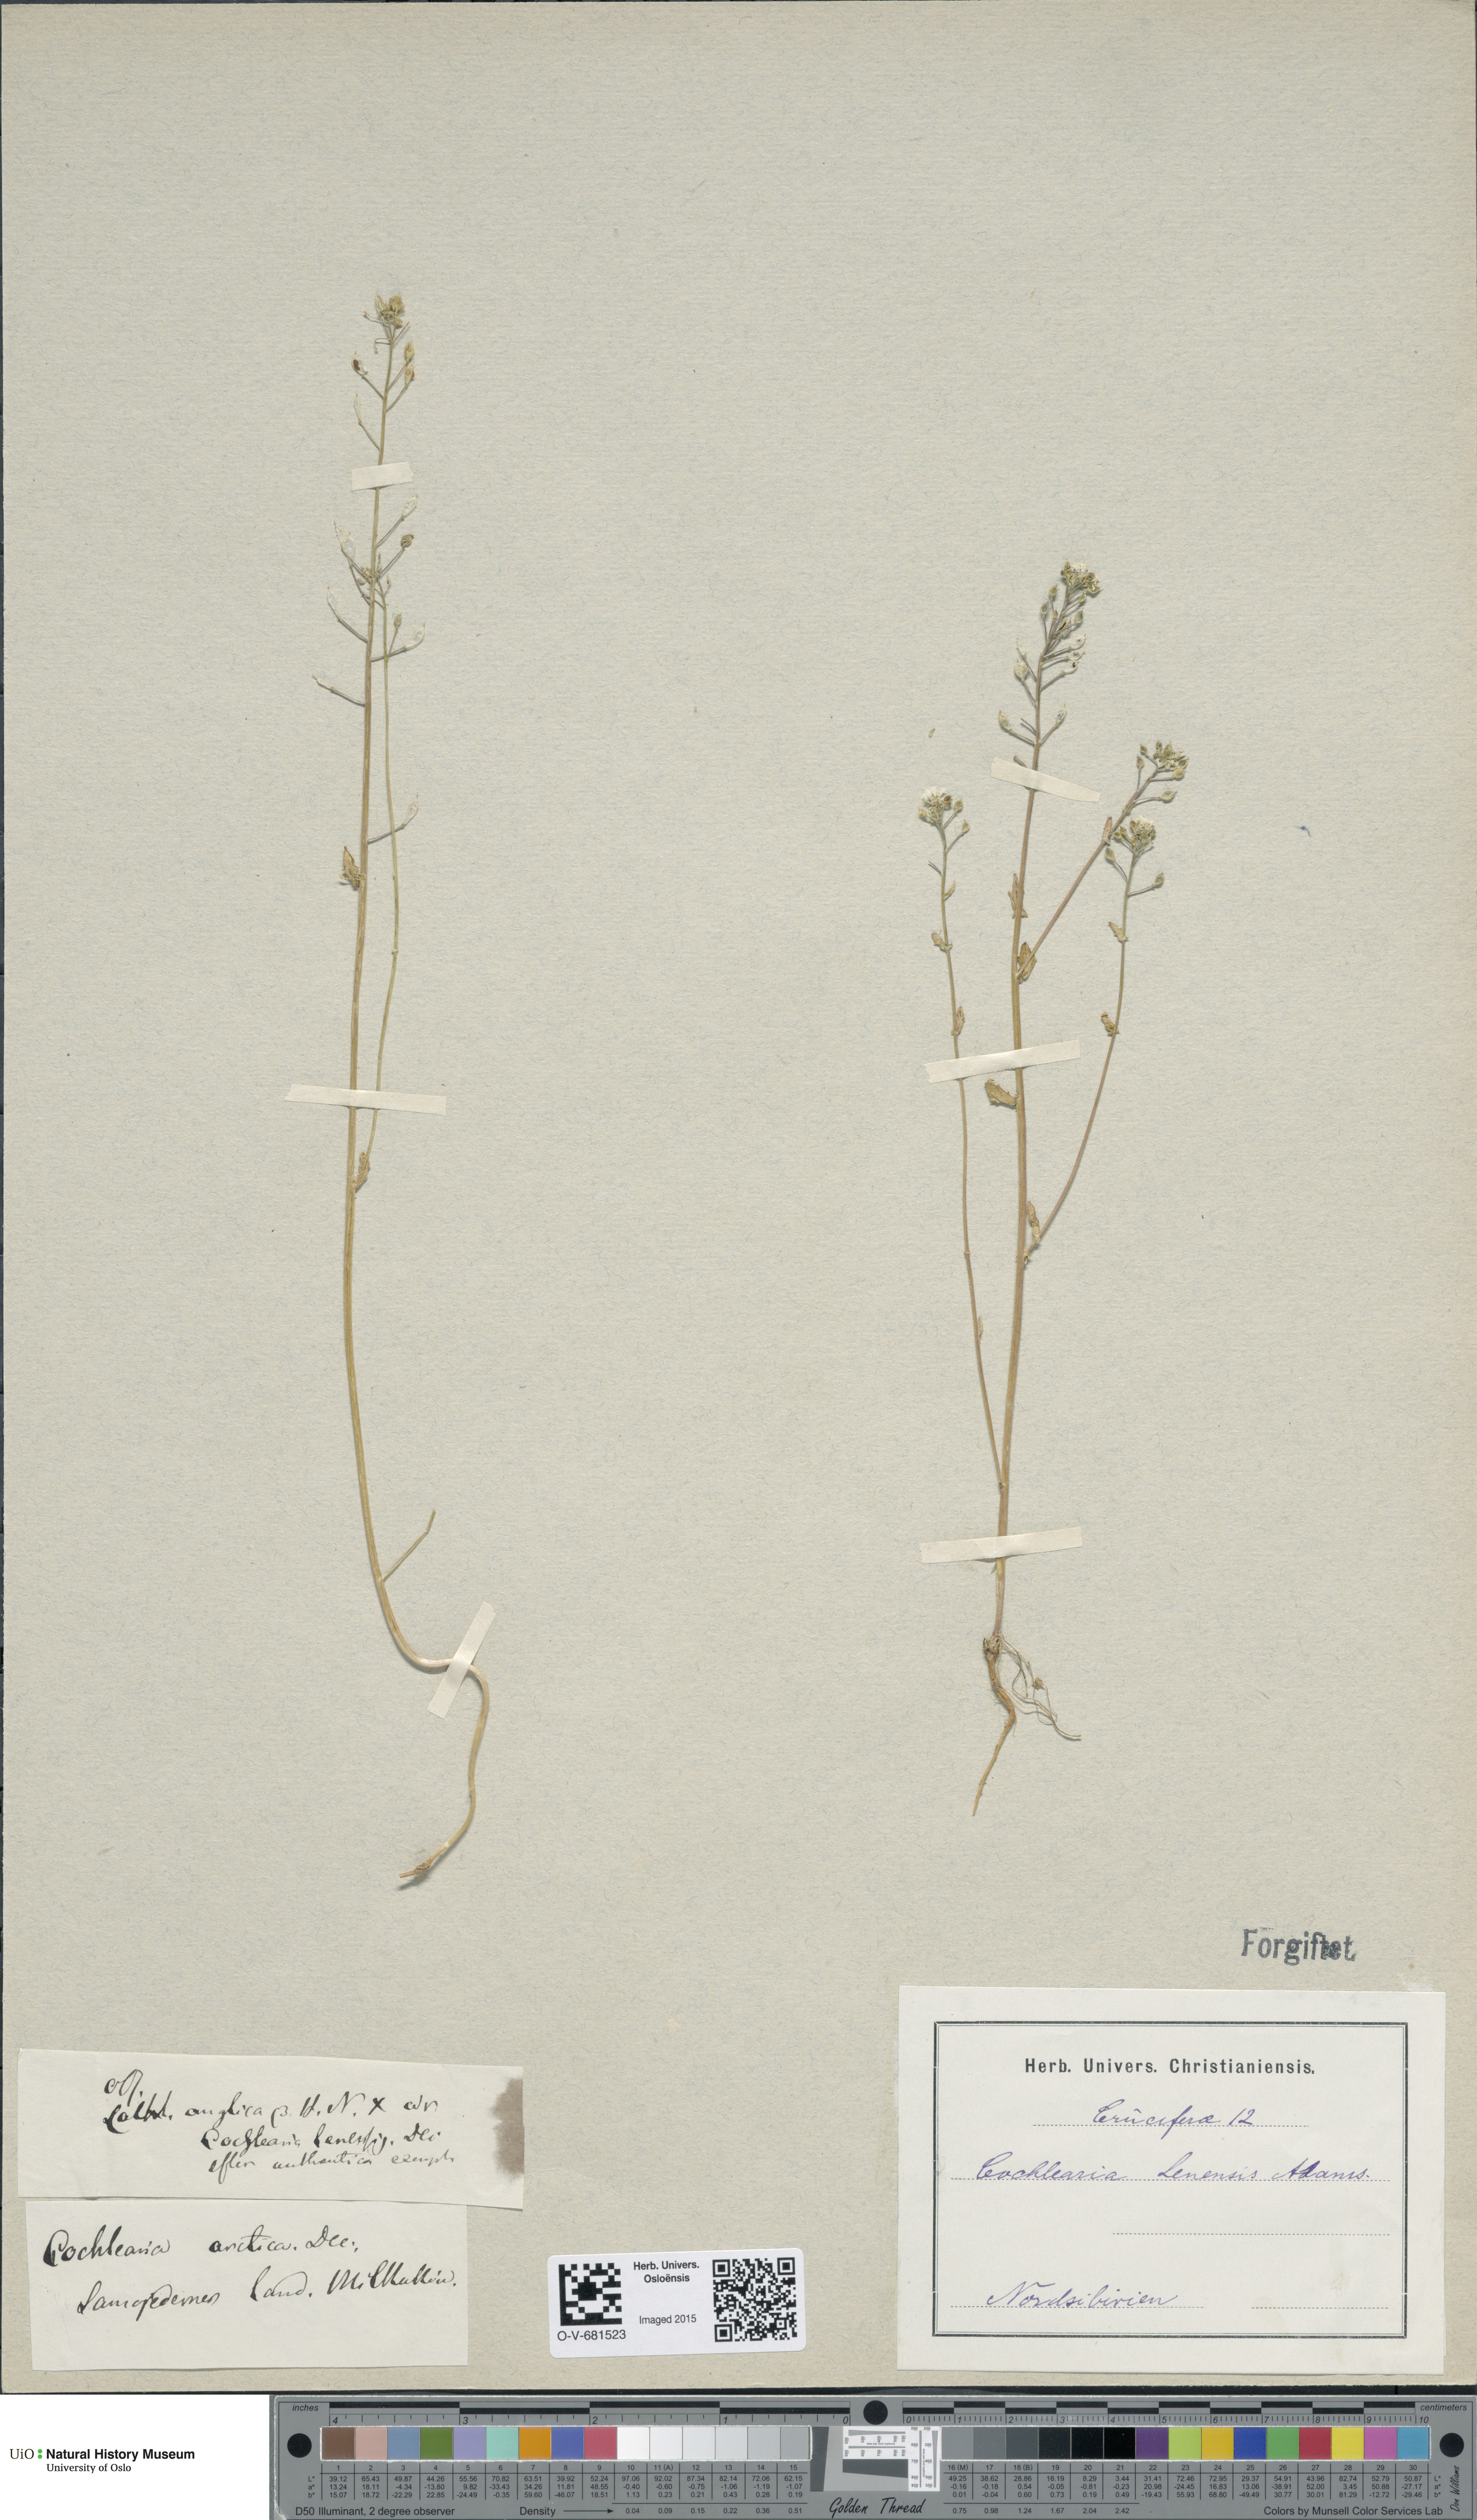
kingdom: Plantae
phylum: Tracheophyta
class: Magnoliopsida
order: Brassicales
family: Brassicaceae
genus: Cochlearia
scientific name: Cochlearia arctica
